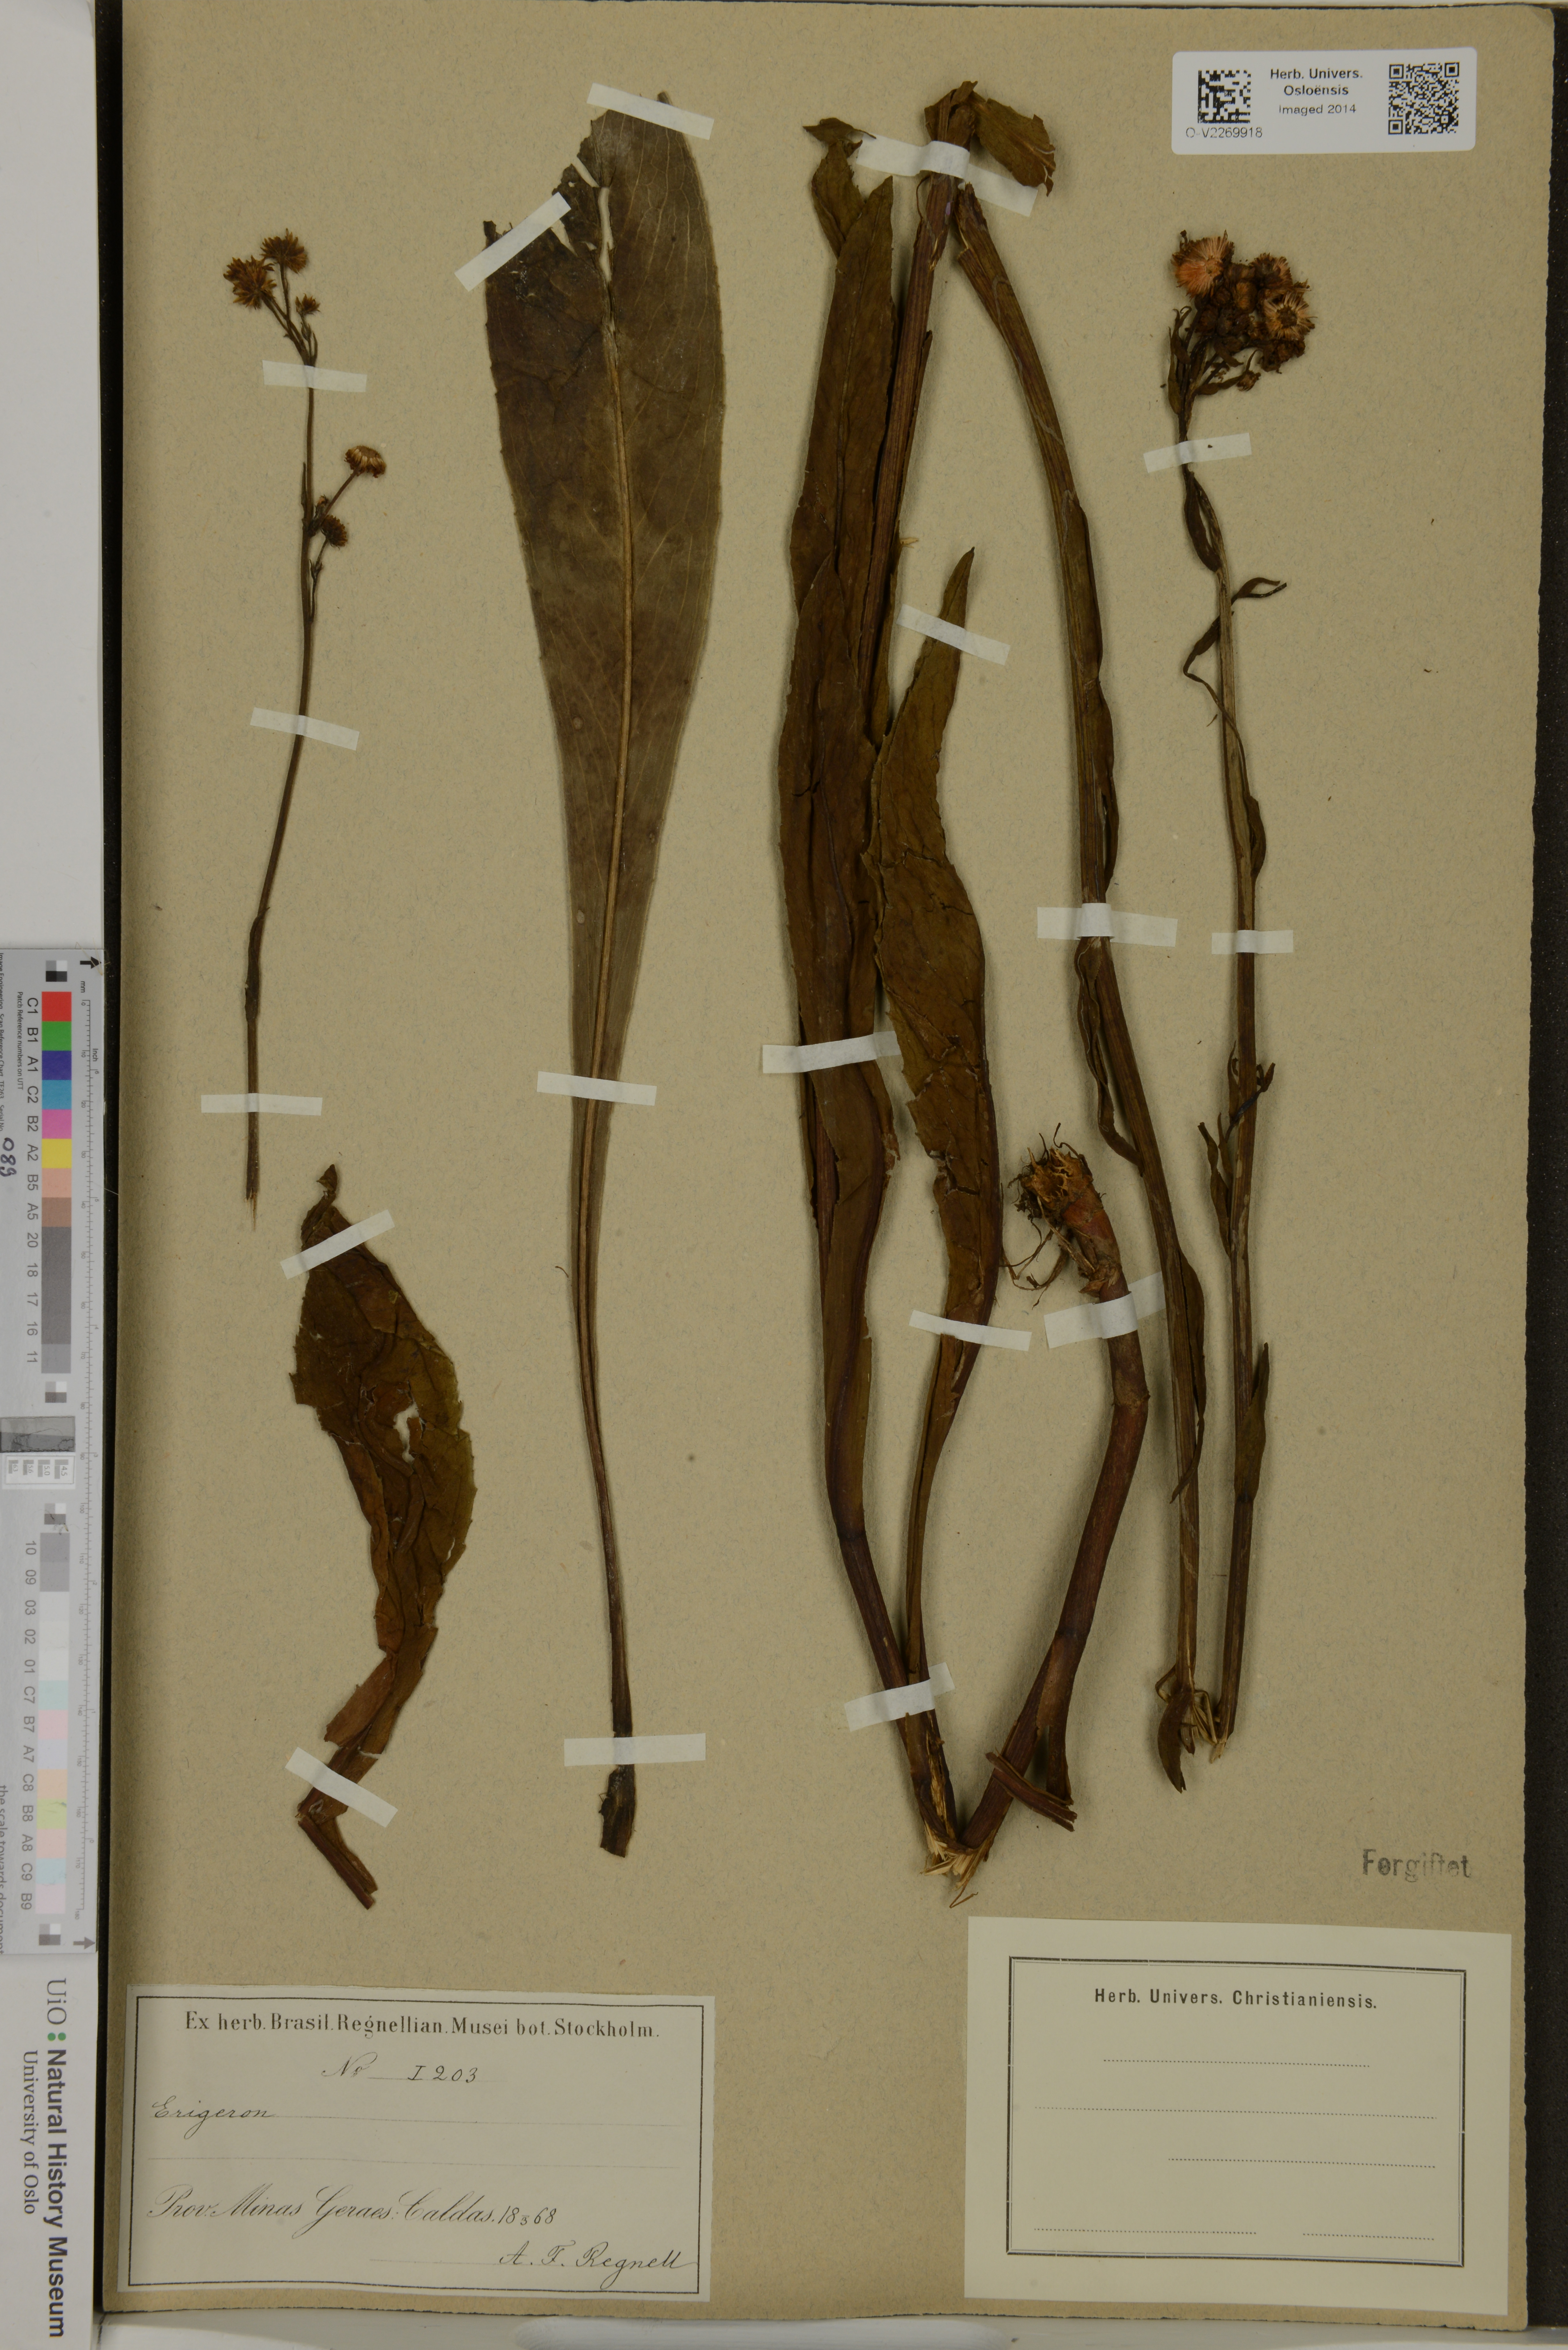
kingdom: Plantae
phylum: Tracheophyta
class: Magnoliopsida
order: Asterales
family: Asteraceae
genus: Erigeron
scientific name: Erigeron
